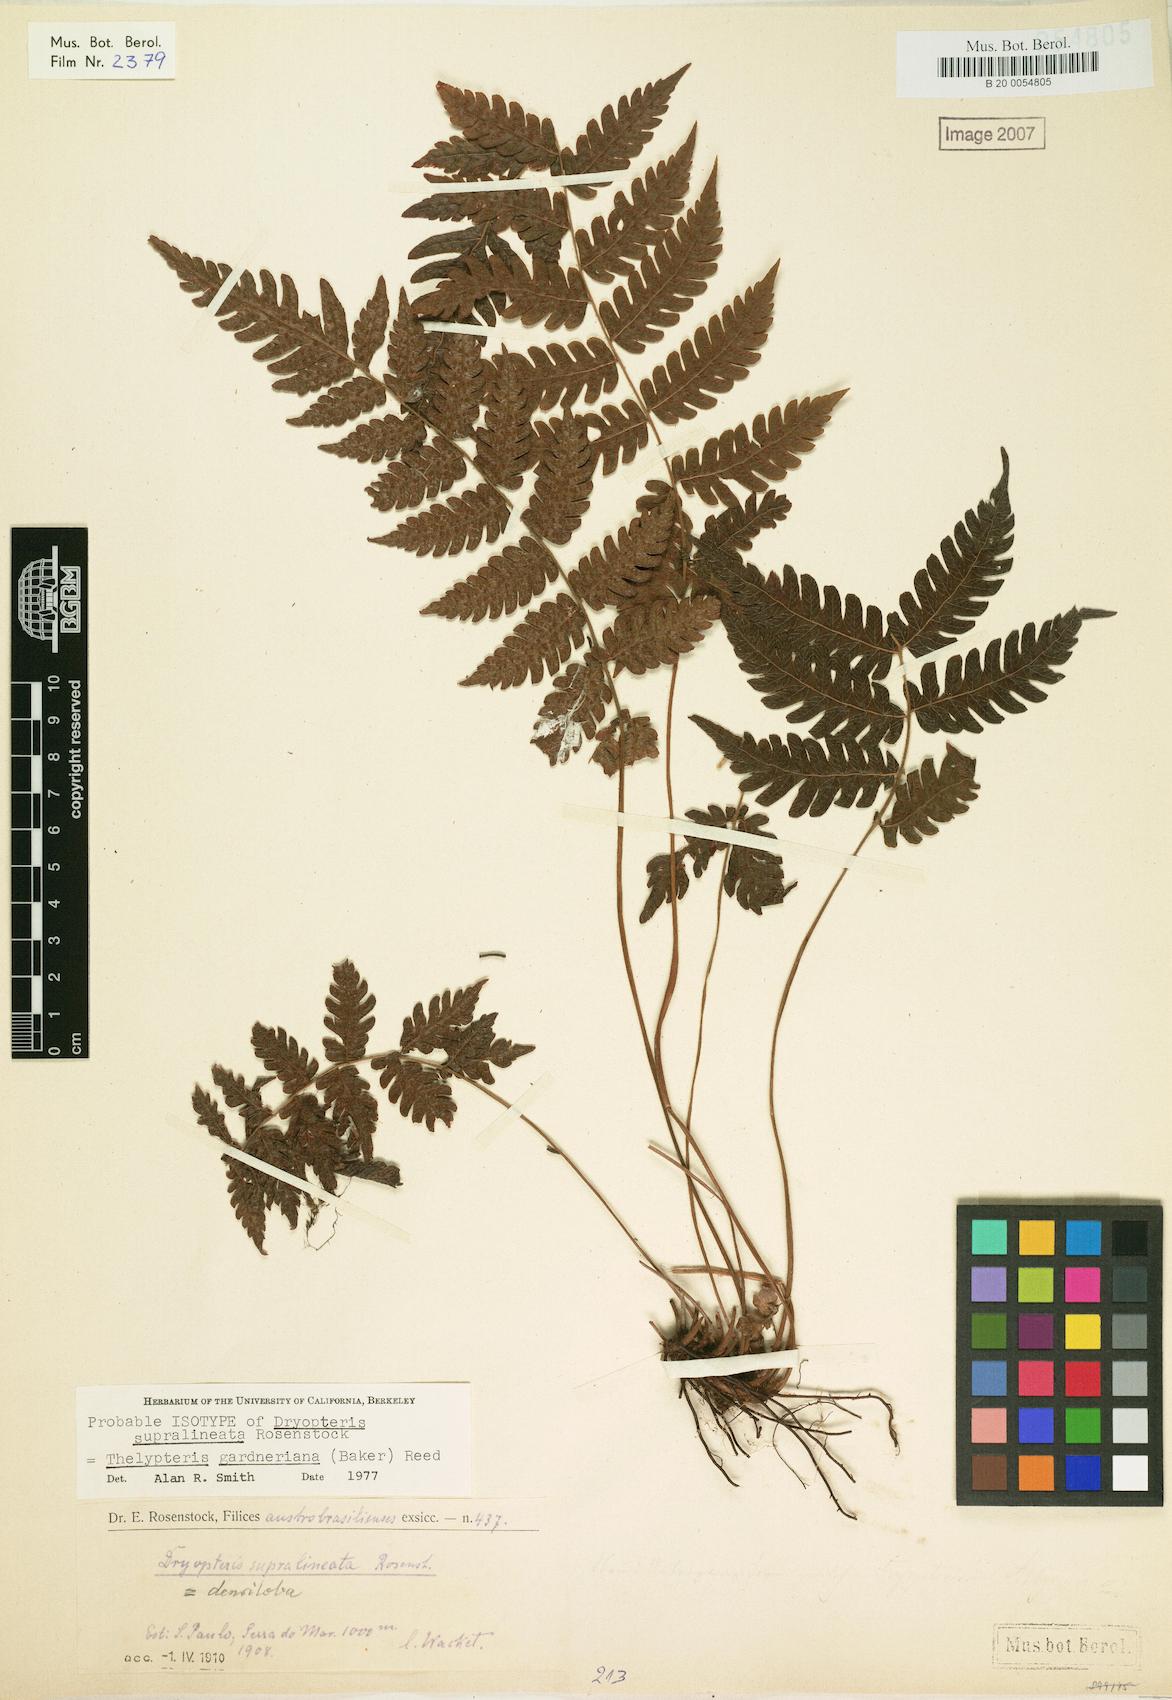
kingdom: Plantae
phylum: Tracheophyta
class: Polypodiopsida
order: Polypodiales
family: Thelypteridaceae
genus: Steiropteris
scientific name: Steiropteris gardneriana
